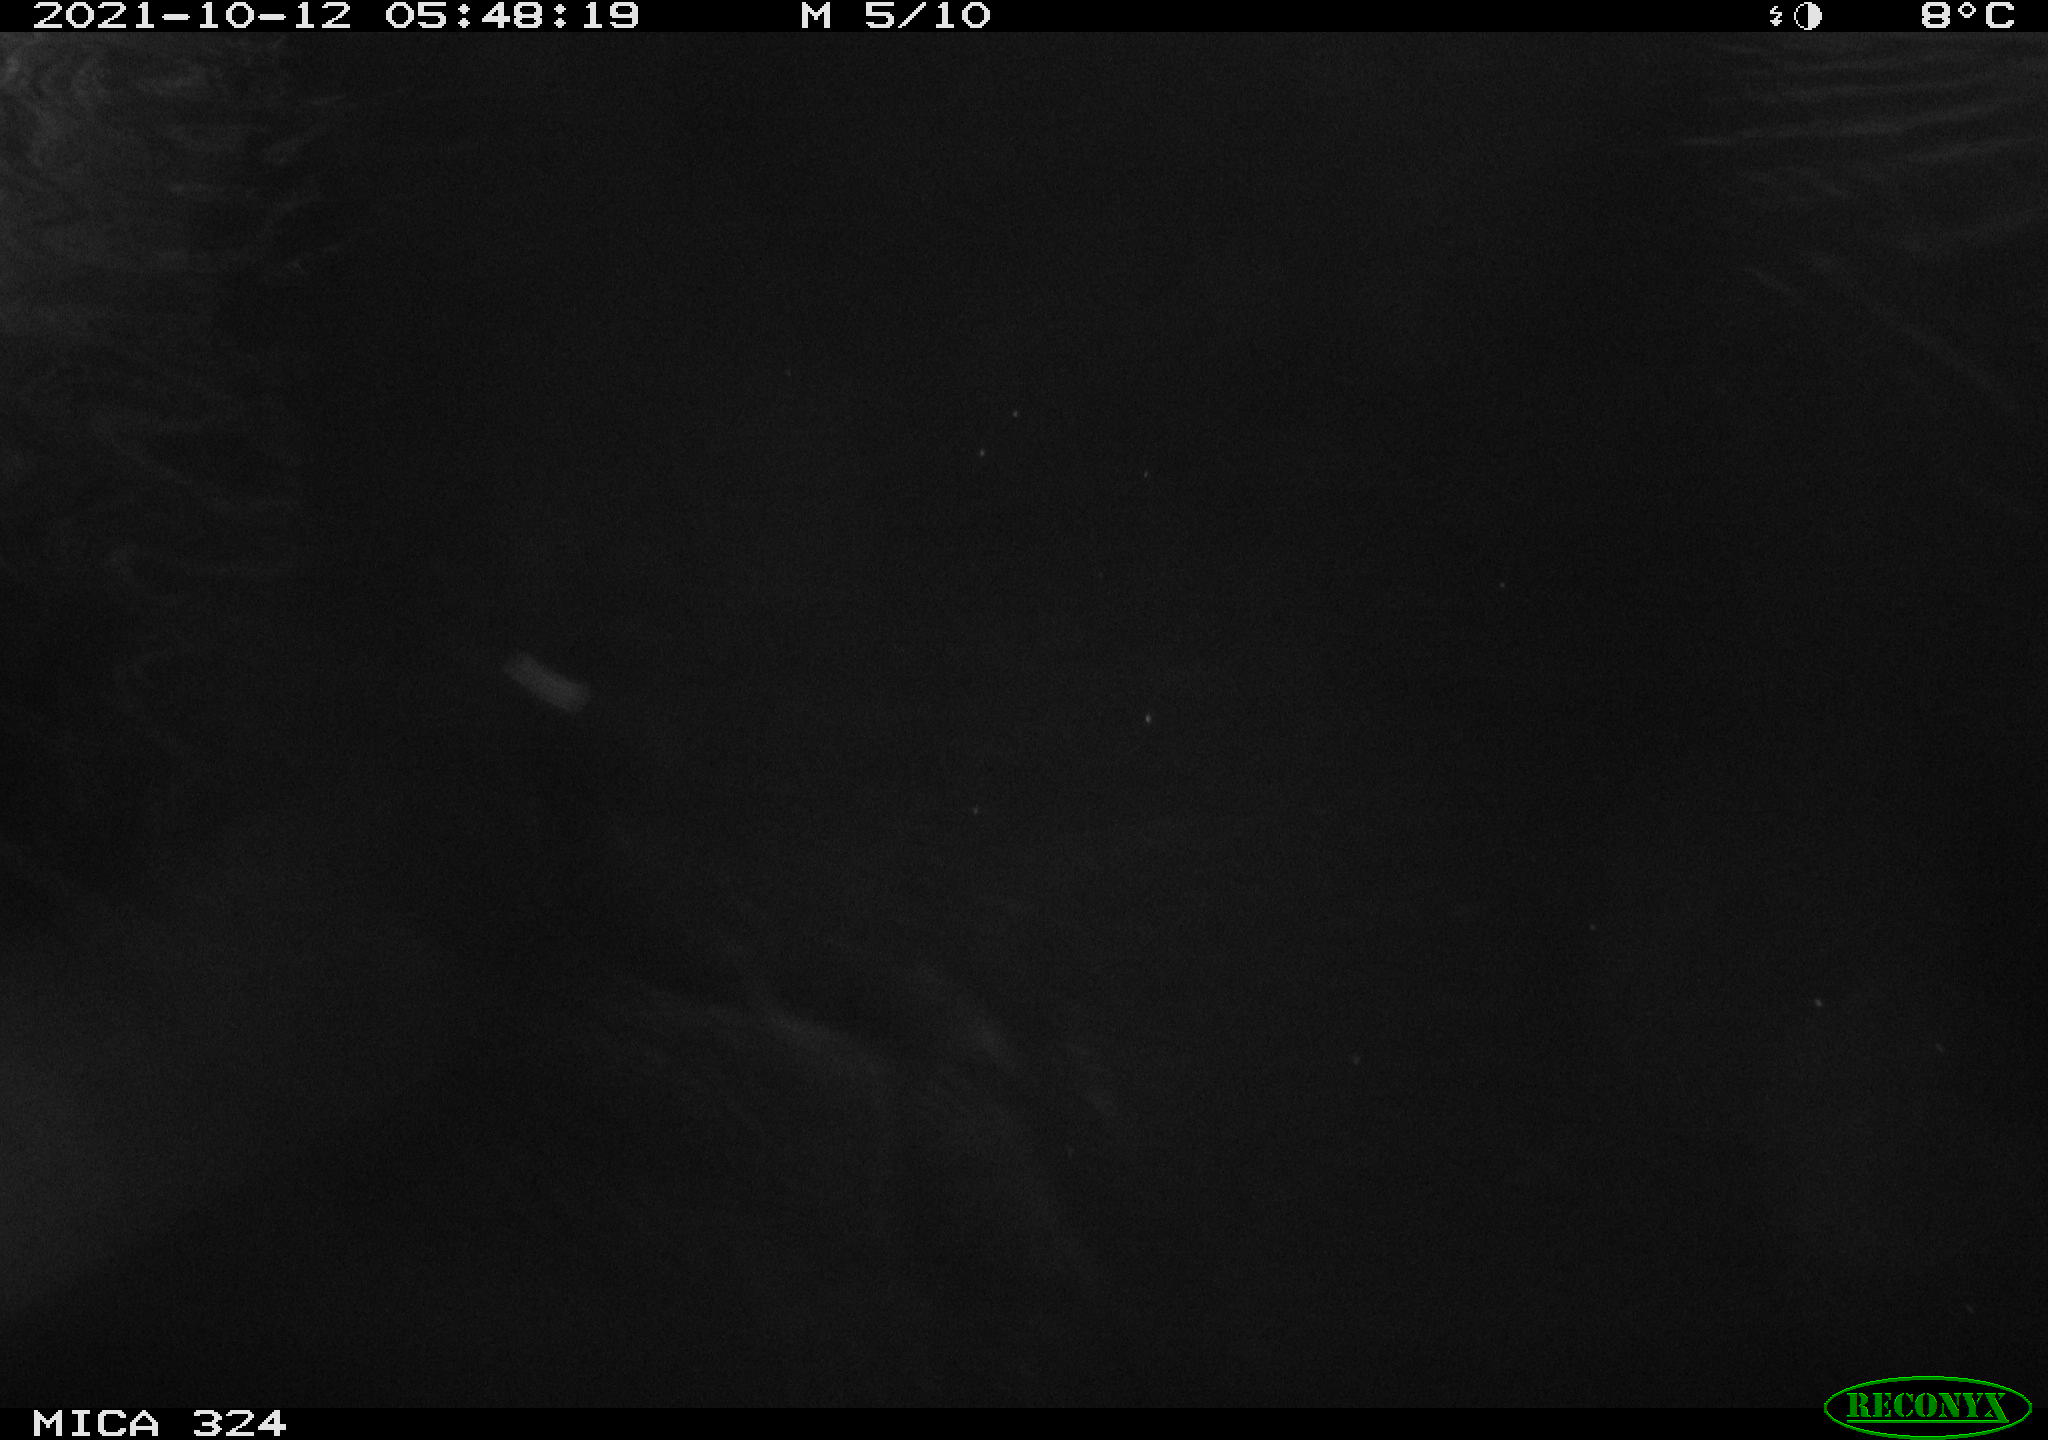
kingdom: Animalia
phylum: Chordata
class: Mammalia
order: Rodentia
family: Cricetidae
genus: Ondatra
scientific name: Ondatra zibethicus
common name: Muskrat
